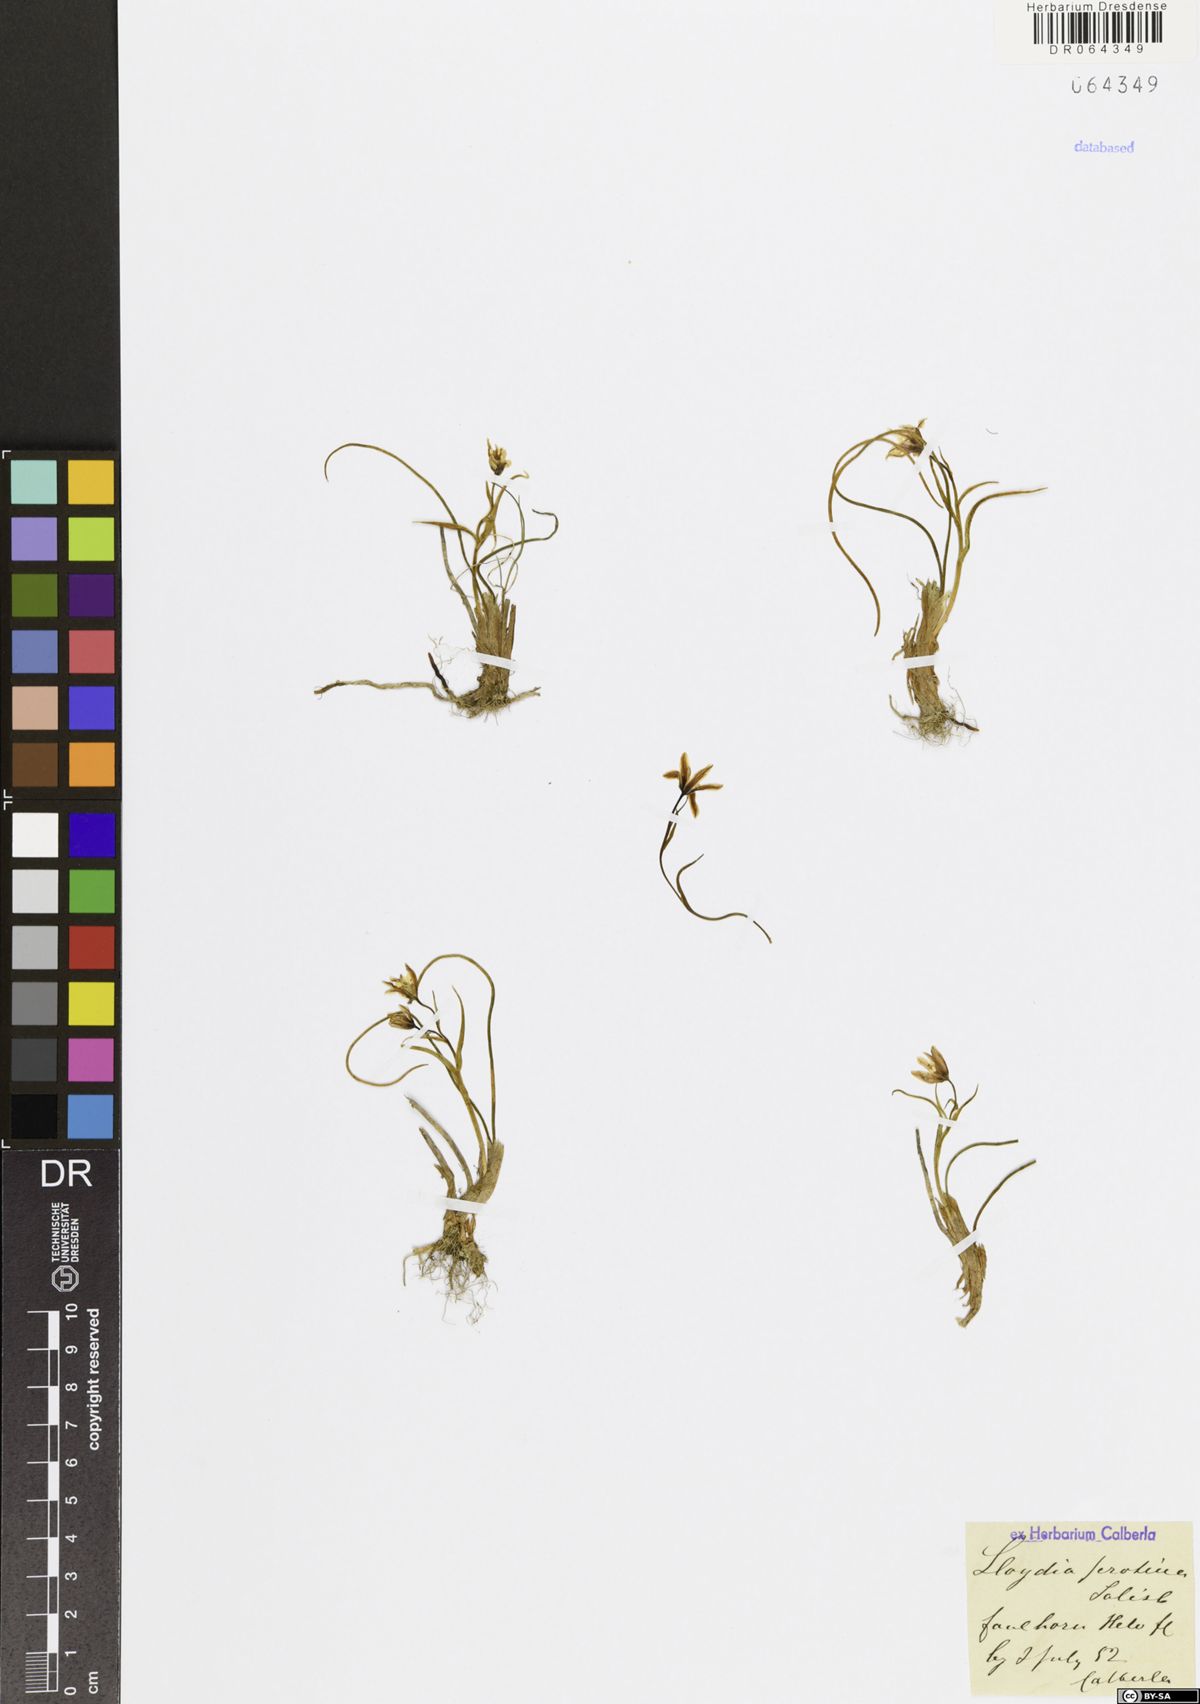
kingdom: Plantae
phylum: Tracheophyta
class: Liliopsida
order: Liliales
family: Liliaceae
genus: Gagea
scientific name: Gagea serotina
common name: Snowdon lily
